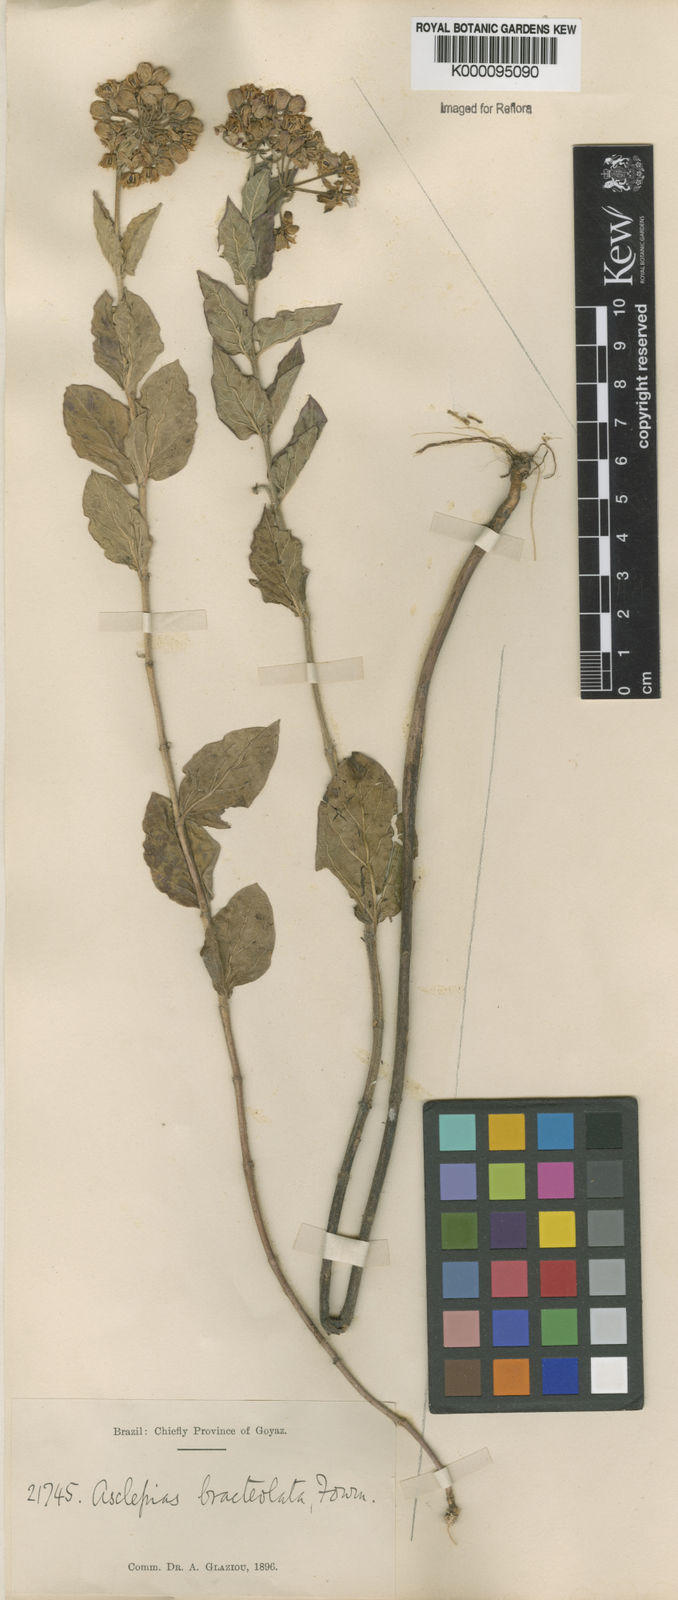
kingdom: Plantae
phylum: Tracheophyta
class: Magnoliopsida
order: Gentianales
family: Apocynaceae
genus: Asclepias
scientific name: Asclepias bracteolata
